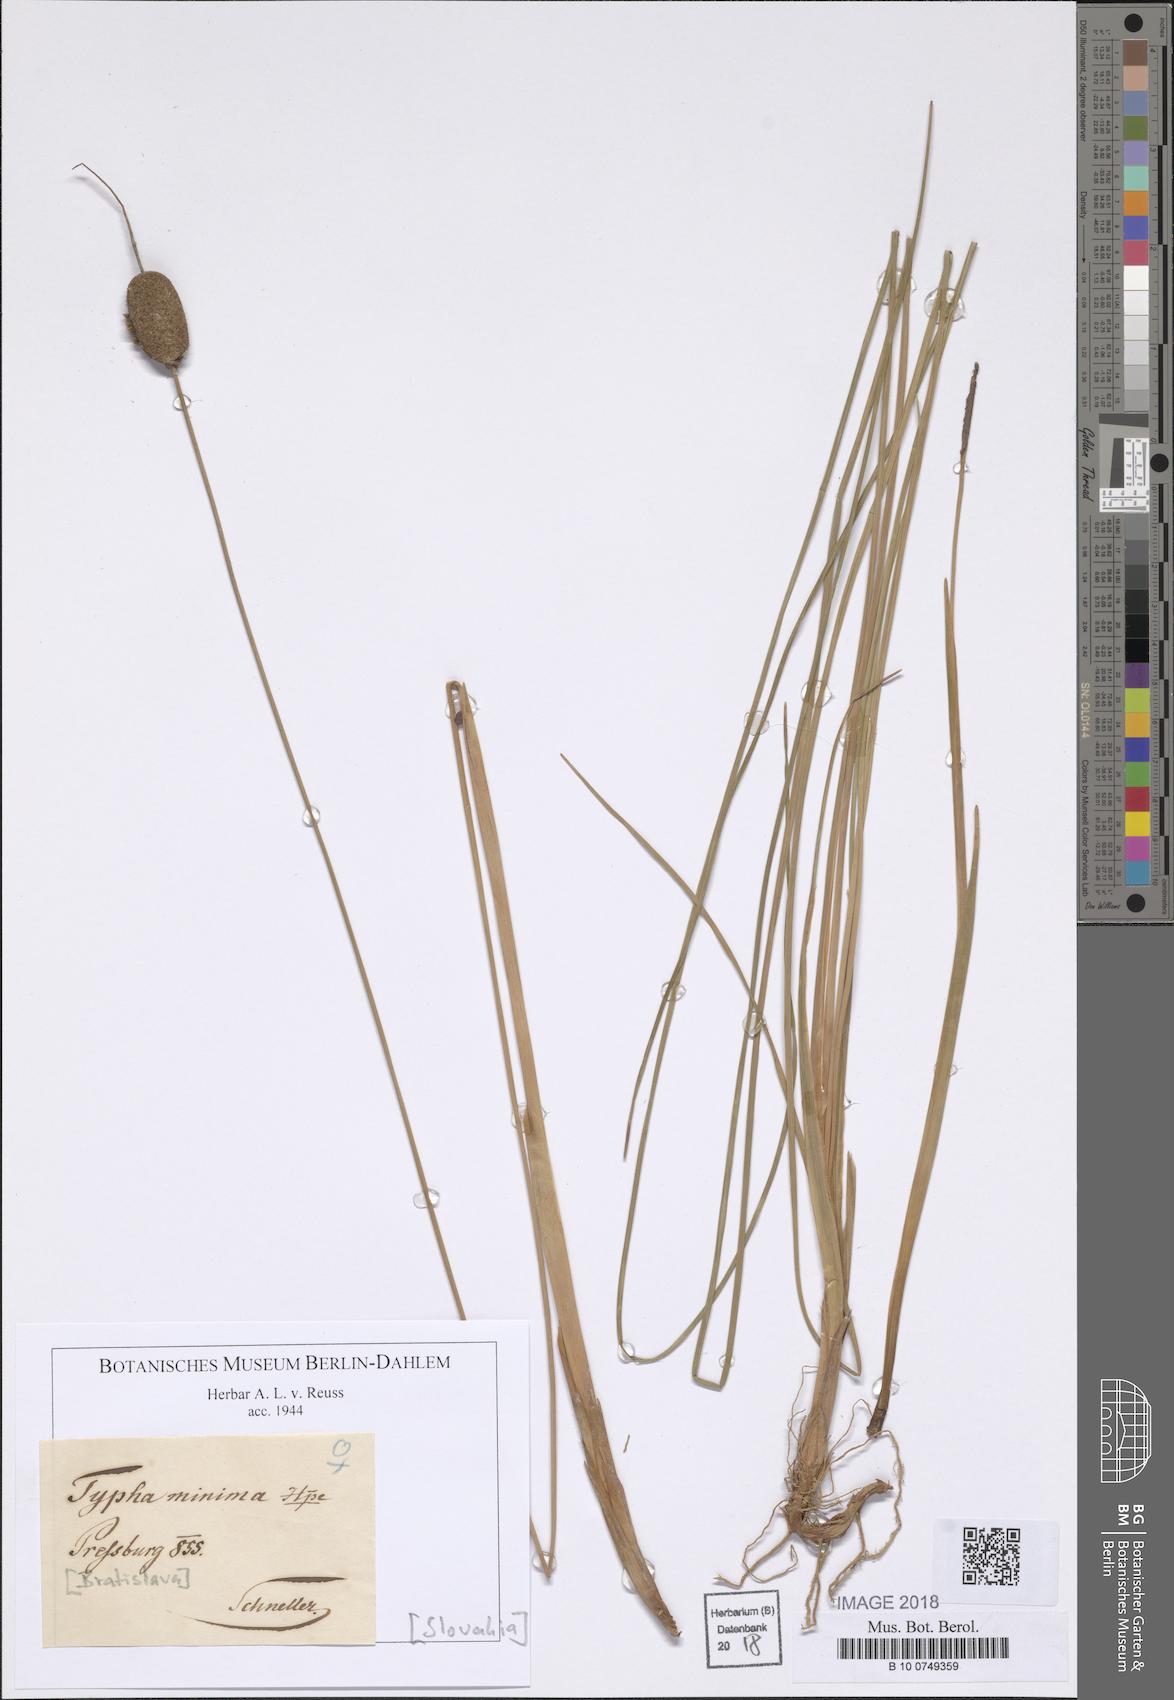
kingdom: Plantae
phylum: Tracheophyta
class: Liliopsida
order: Poales
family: Typhaceae
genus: Typha
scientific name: Typha minima
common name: Dwarf bulrush
